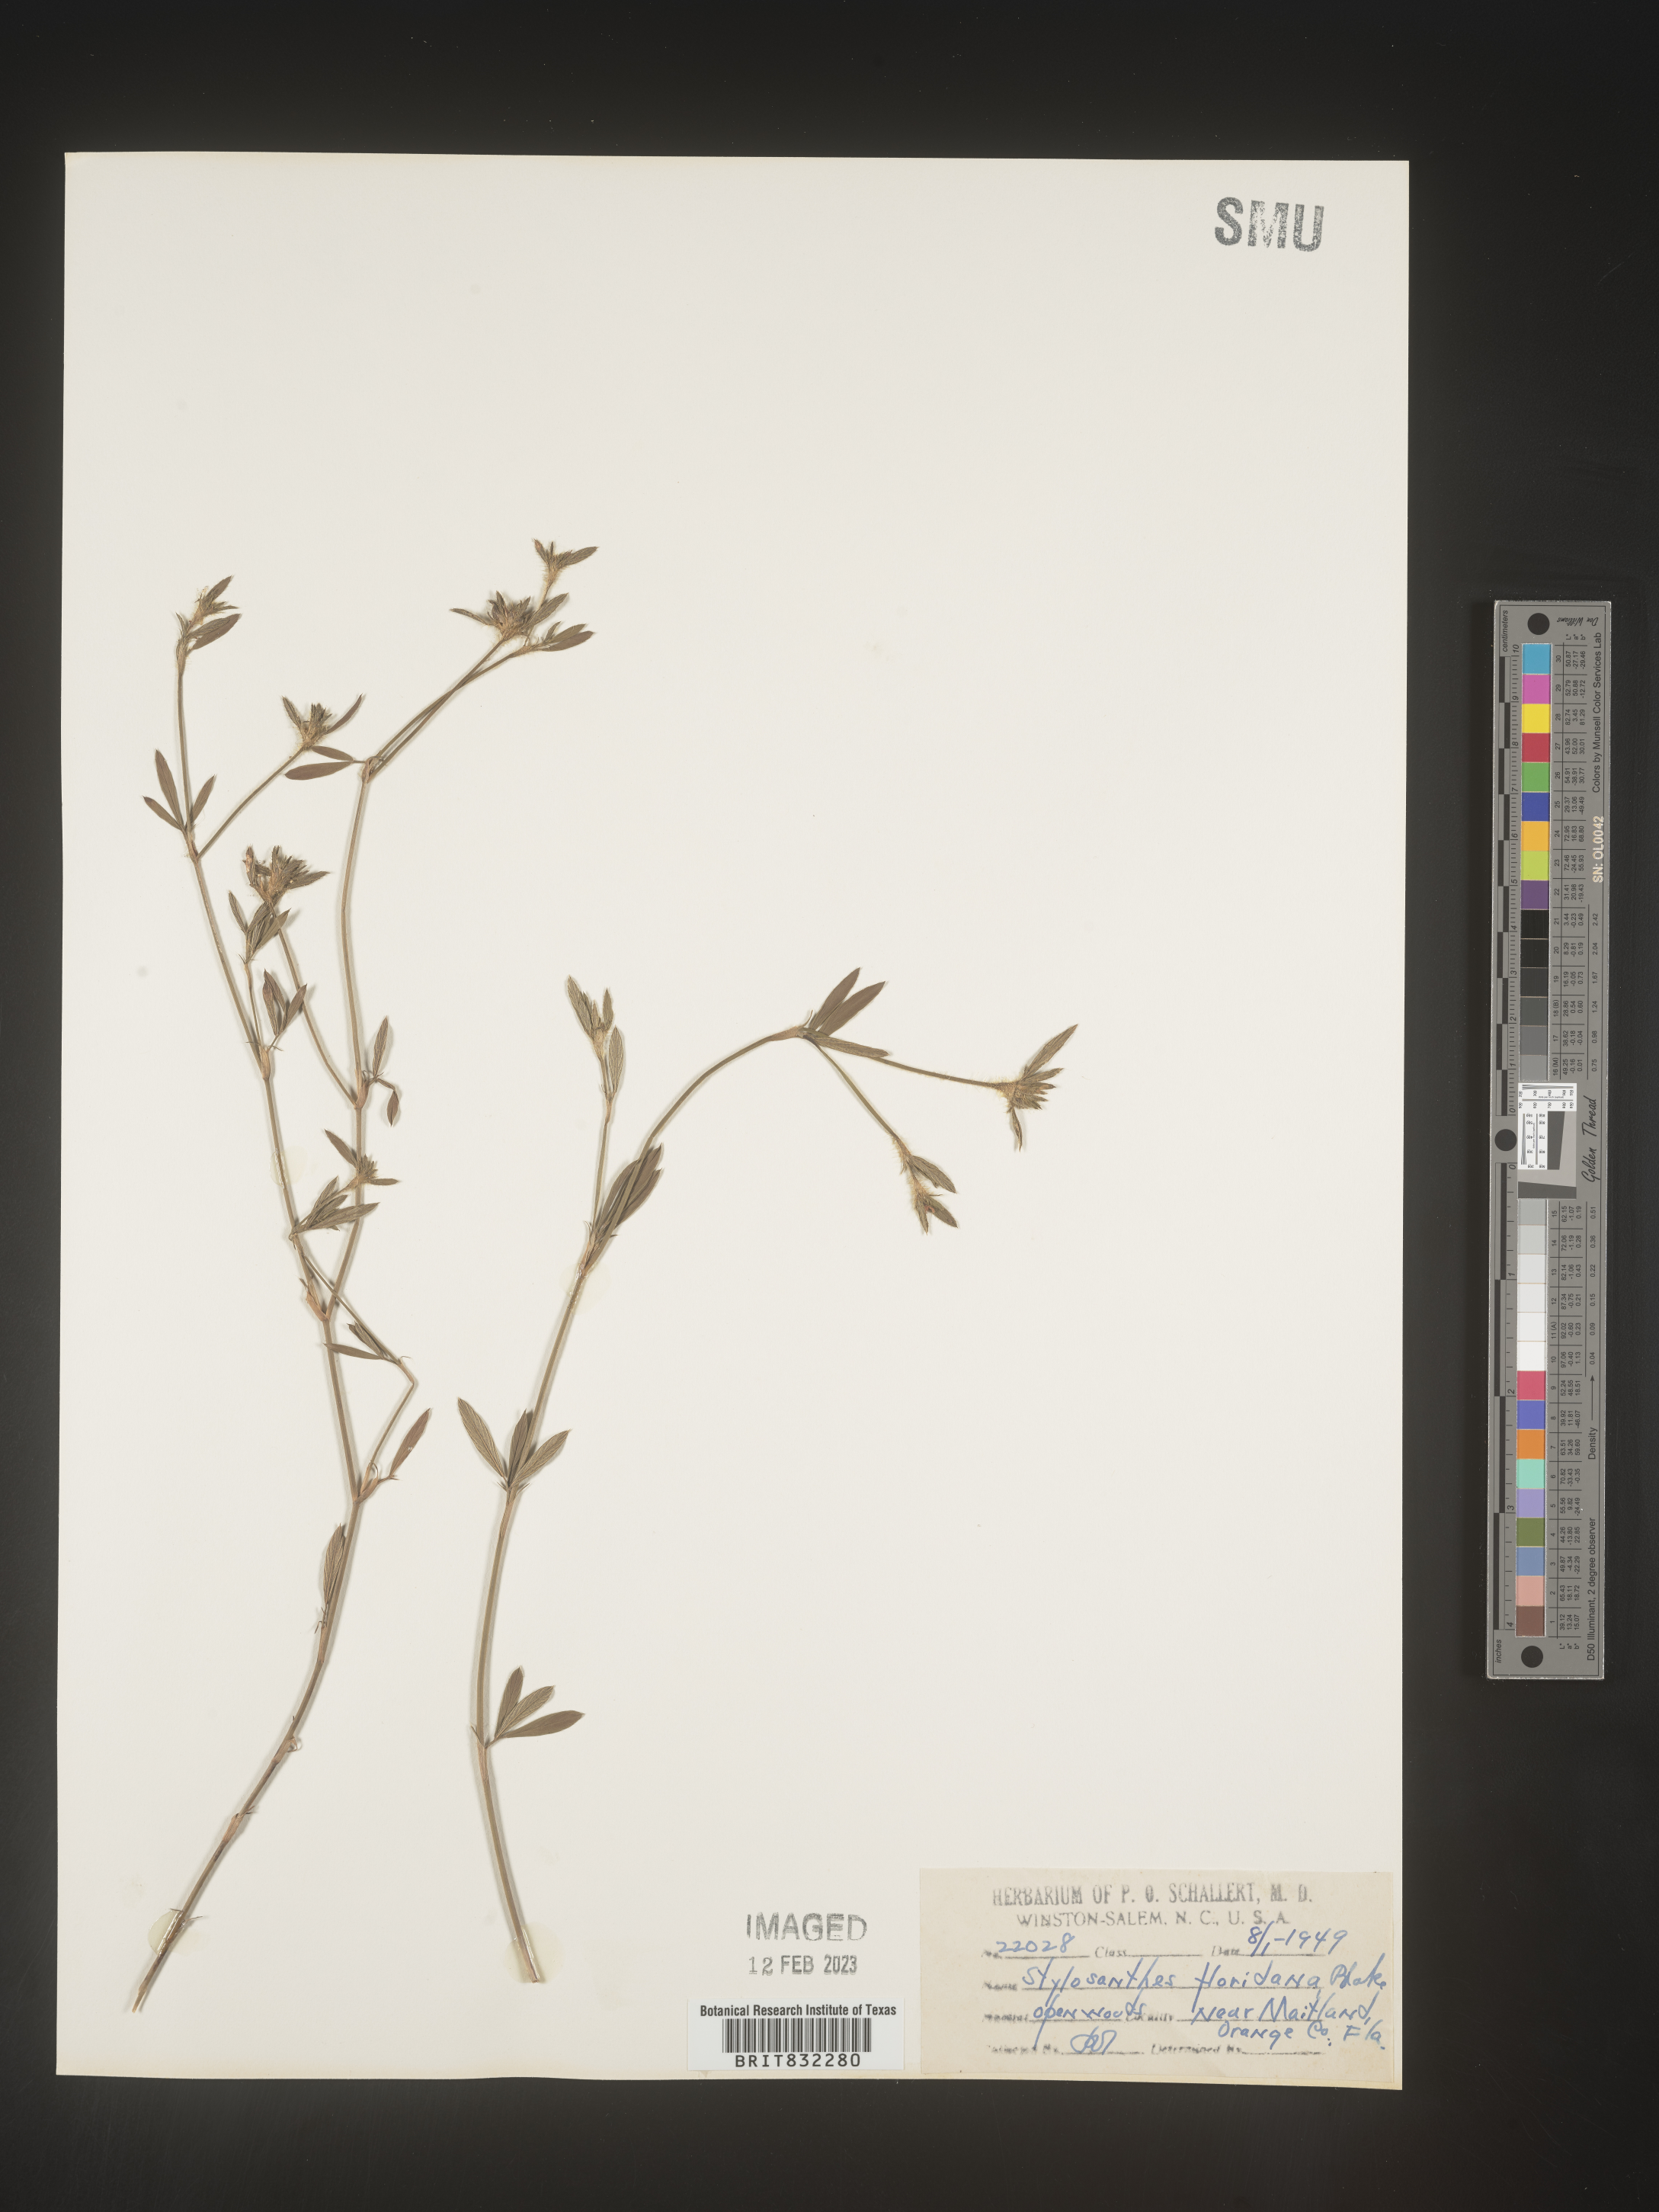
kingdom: Plantae
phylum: Tracheophyta
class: Magnoliopsida
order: Fabales
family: Fabaceae
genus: Stylosanthes
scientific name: Stylosanthes biflora
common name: Two-flower pencil-flower
